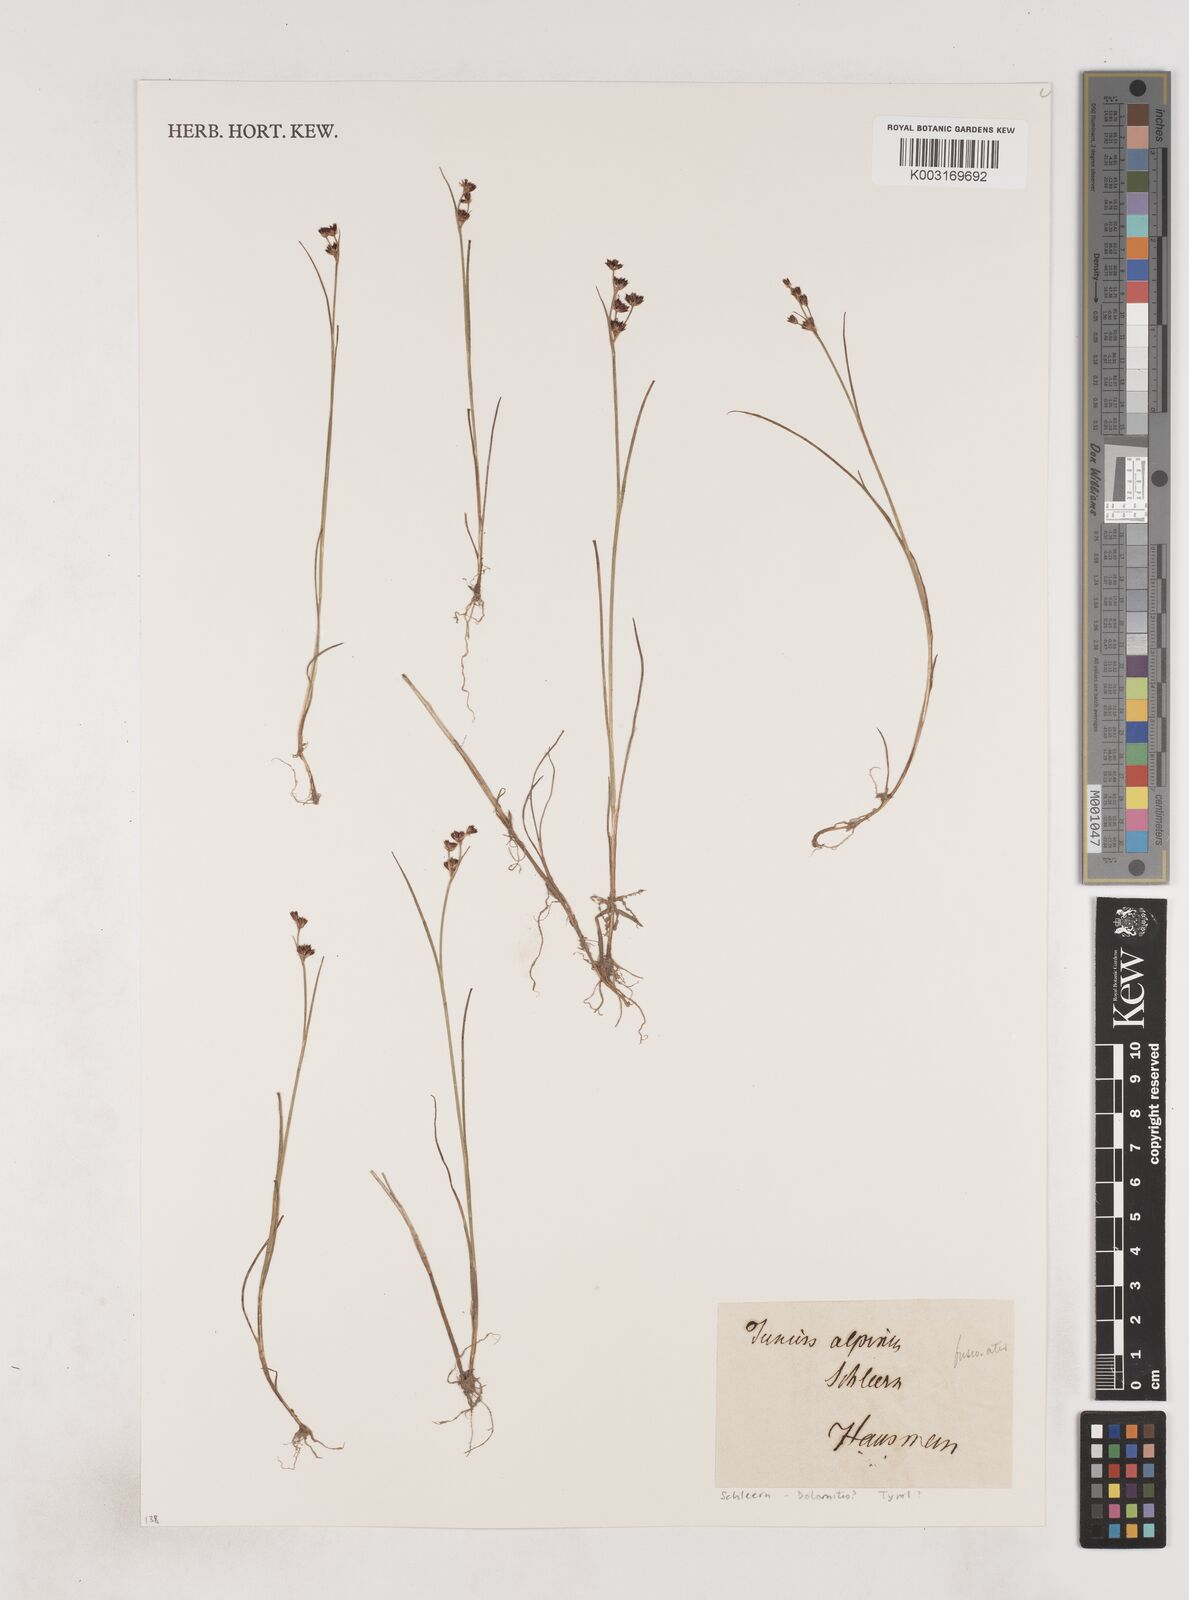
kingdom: Plantae
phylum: Tracheophyta
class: Liliopsida
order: Poales
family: Juncaceae
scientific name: Juncaceae
